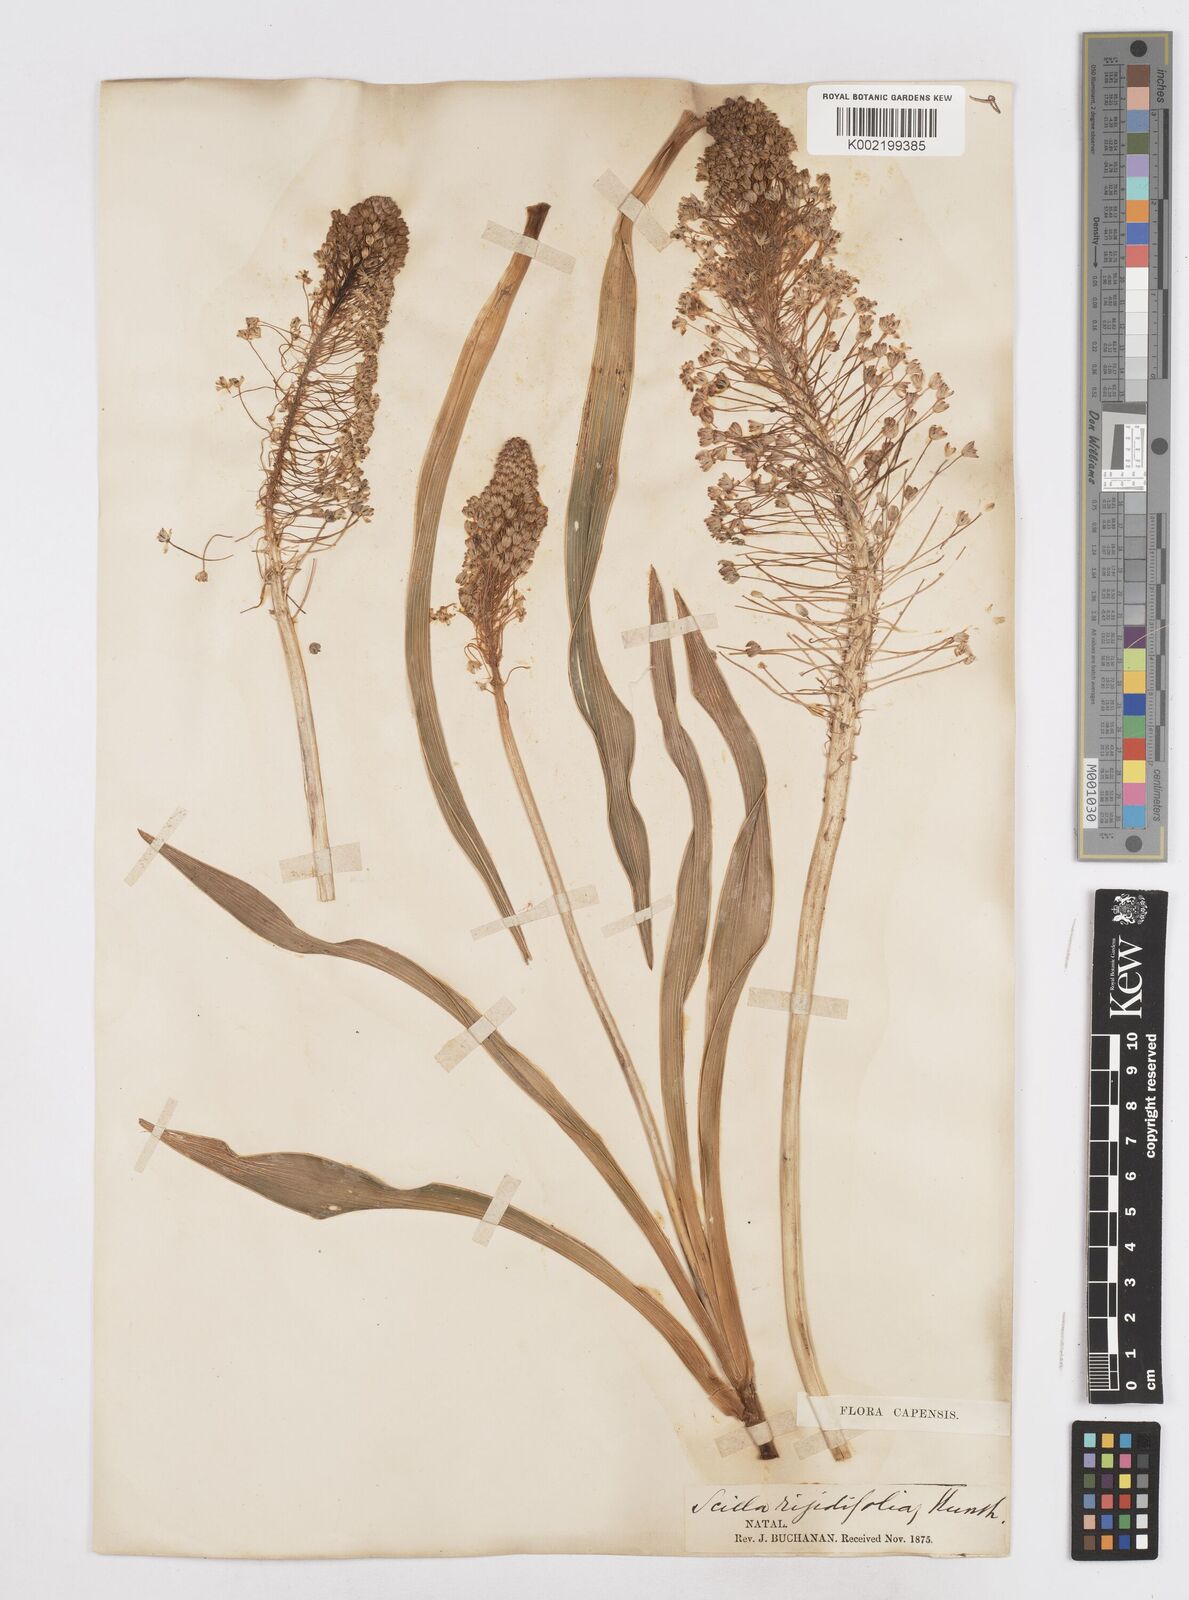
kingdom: Plantae
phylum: Tracheophyta
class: Liliopsida
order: Asparagales
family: Asparagaceae
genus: Schizocarphus
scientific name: Schizocarphus nervosus
